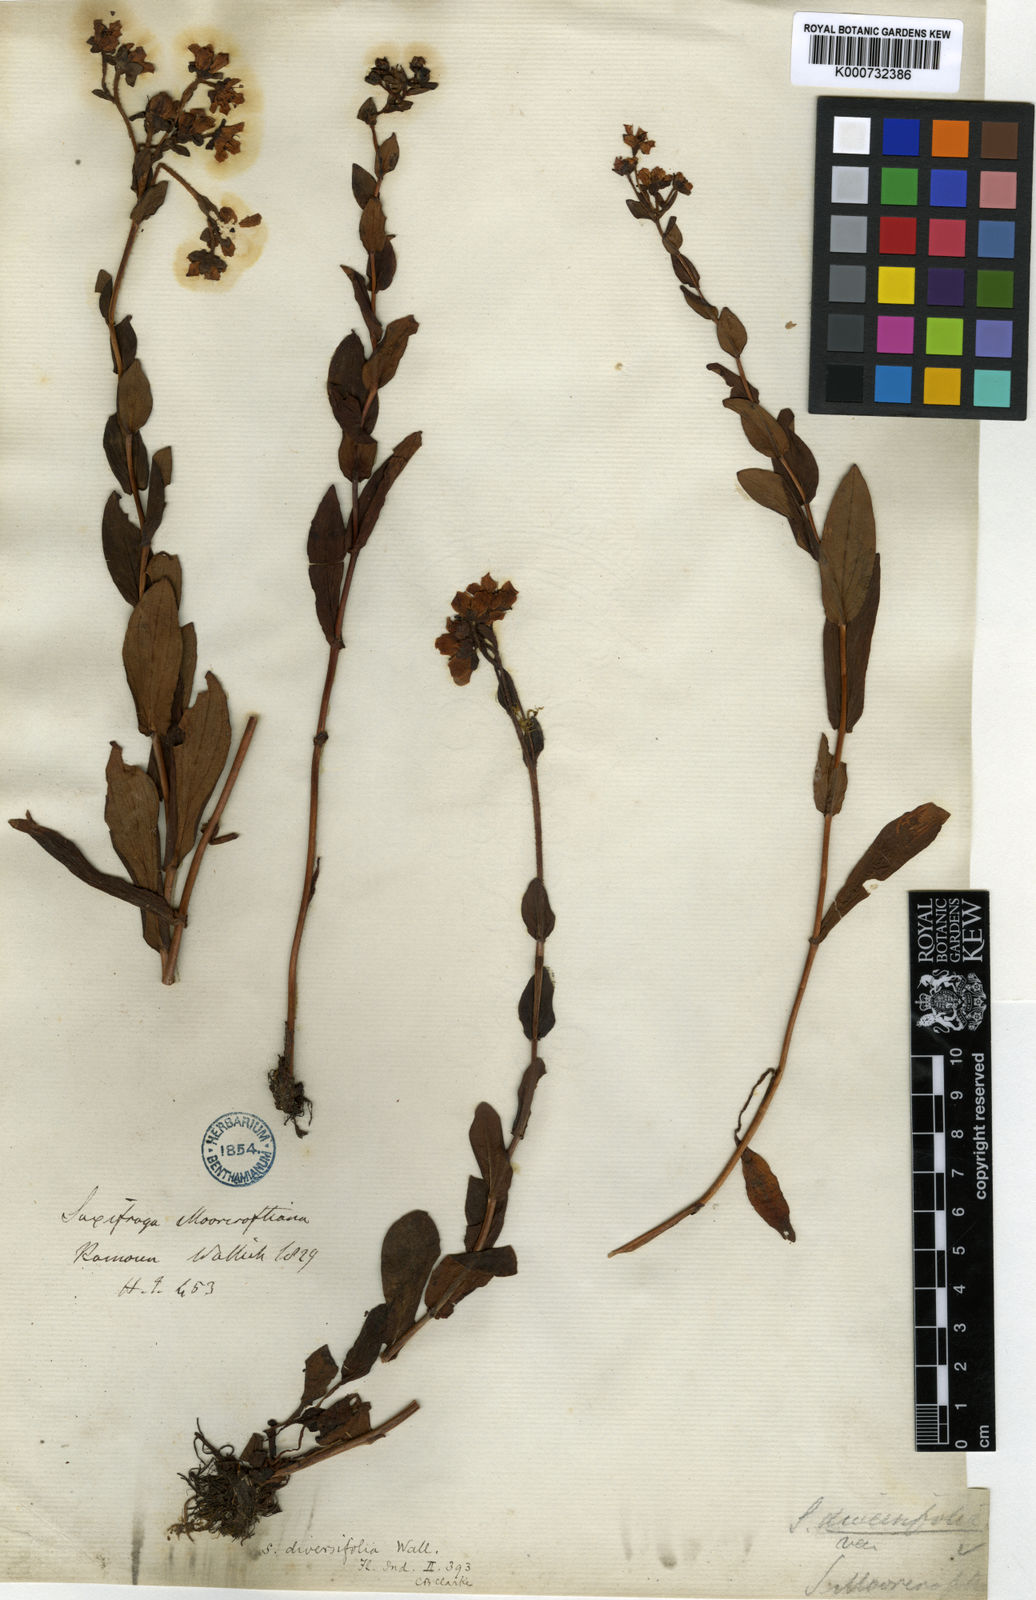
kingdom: Plantae
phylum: Tracheophyta
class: Magnoliopsida
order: Saxifragales
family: Saxifragaceae
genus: Saxifraga
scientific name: Saxifraga moorcroftiana
